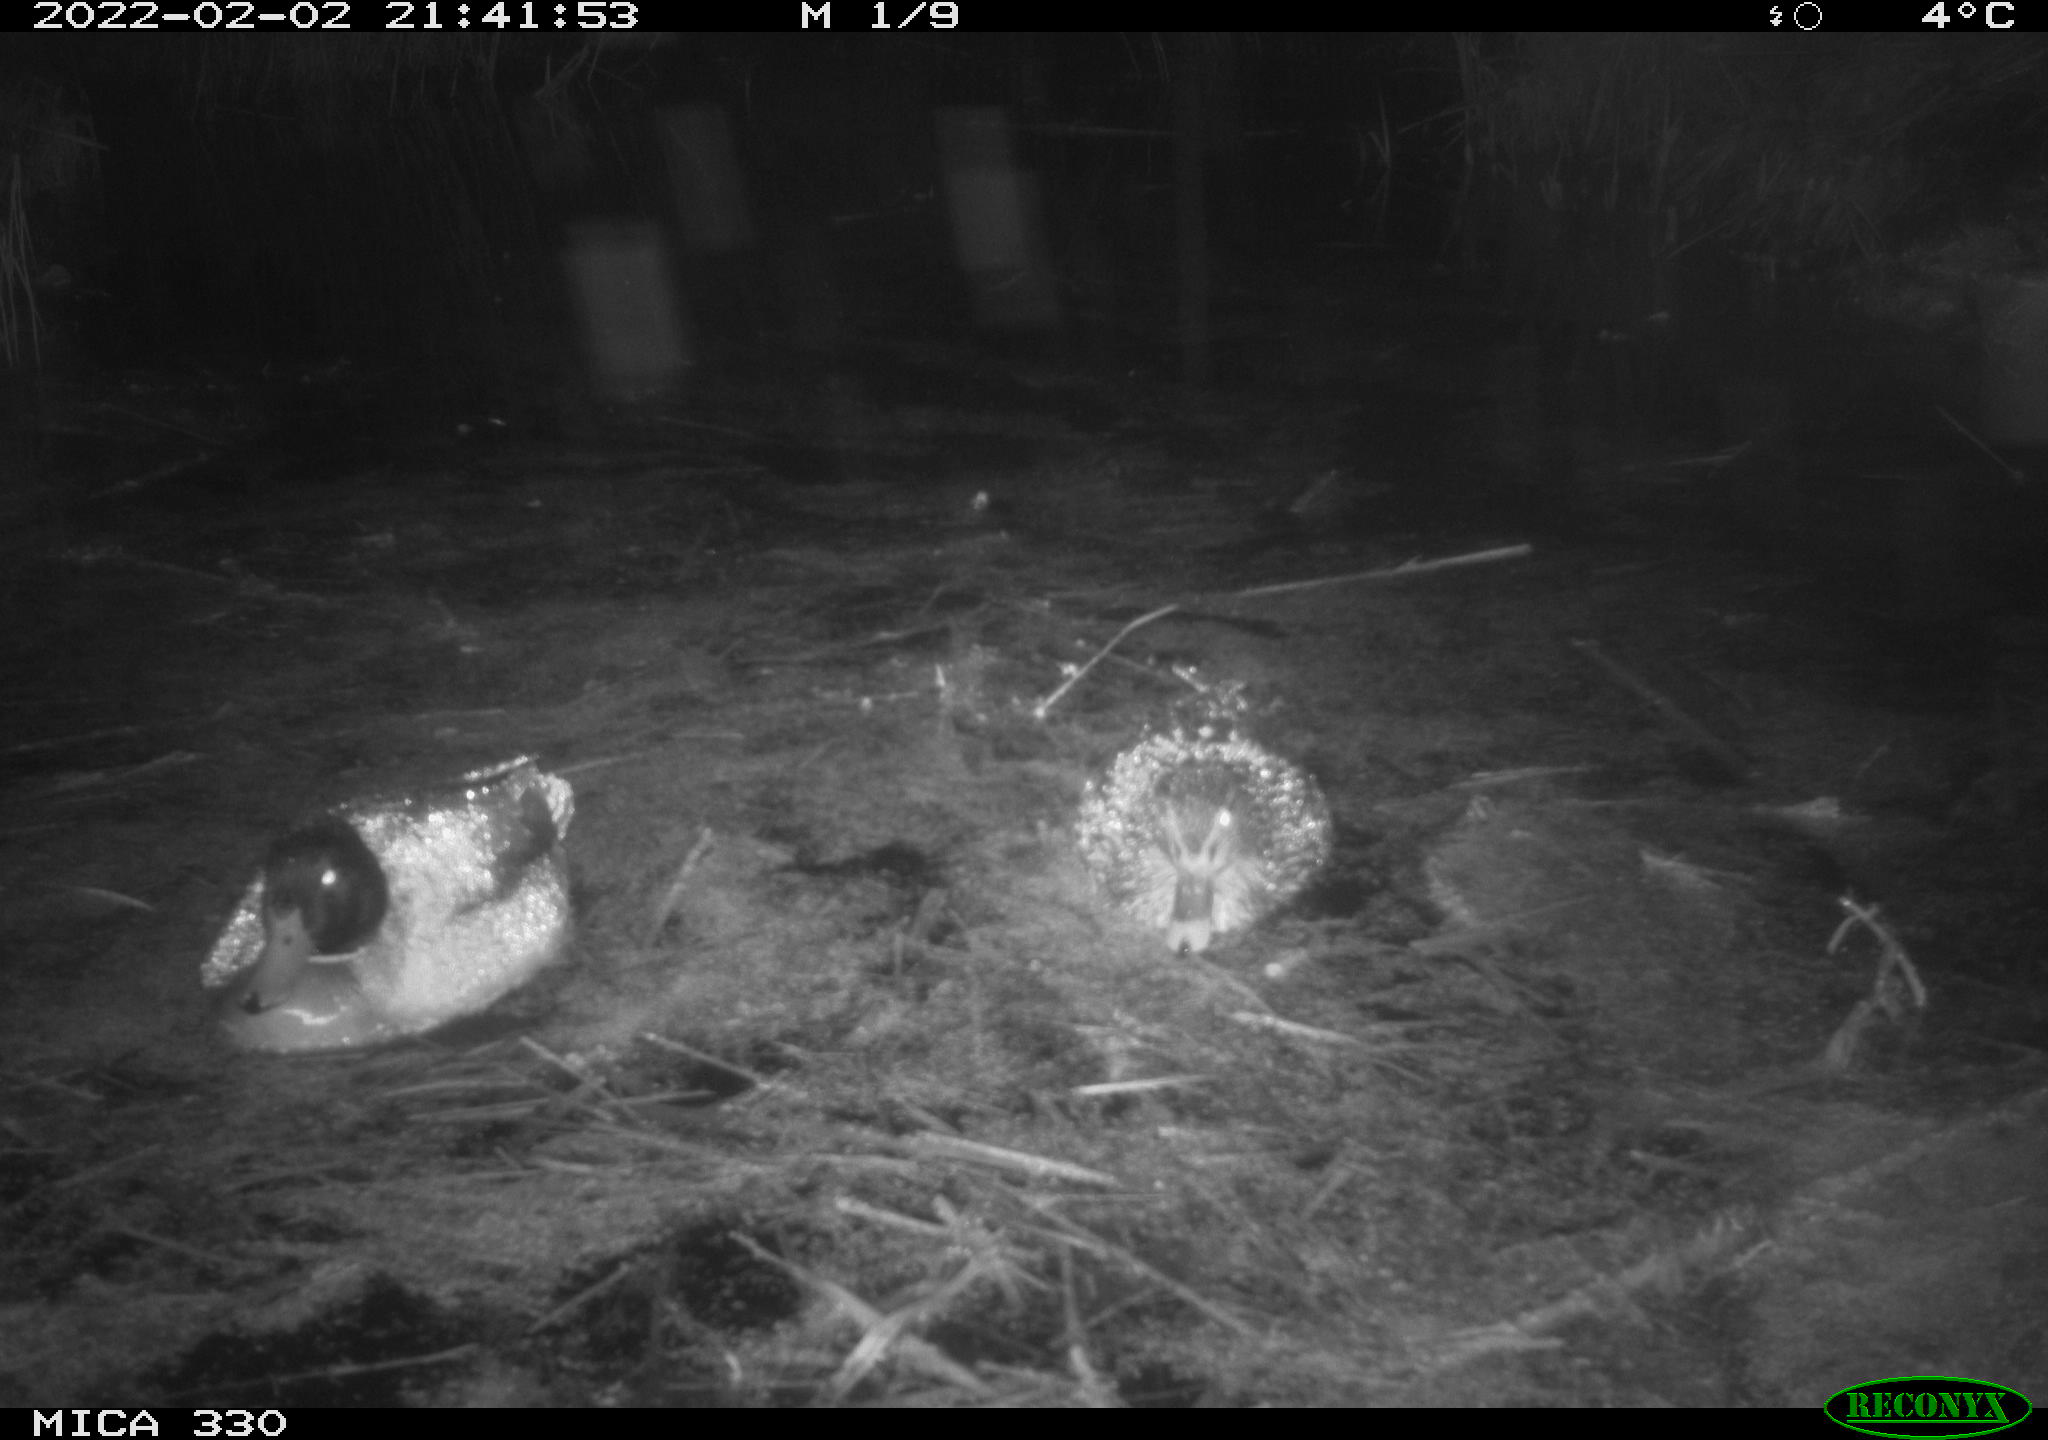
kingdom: Animalia
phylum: Chordata
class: Aves
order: Anseriformes
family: Anatidae
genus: Anas
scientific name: Anas platyrhynchos
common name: Mallard
